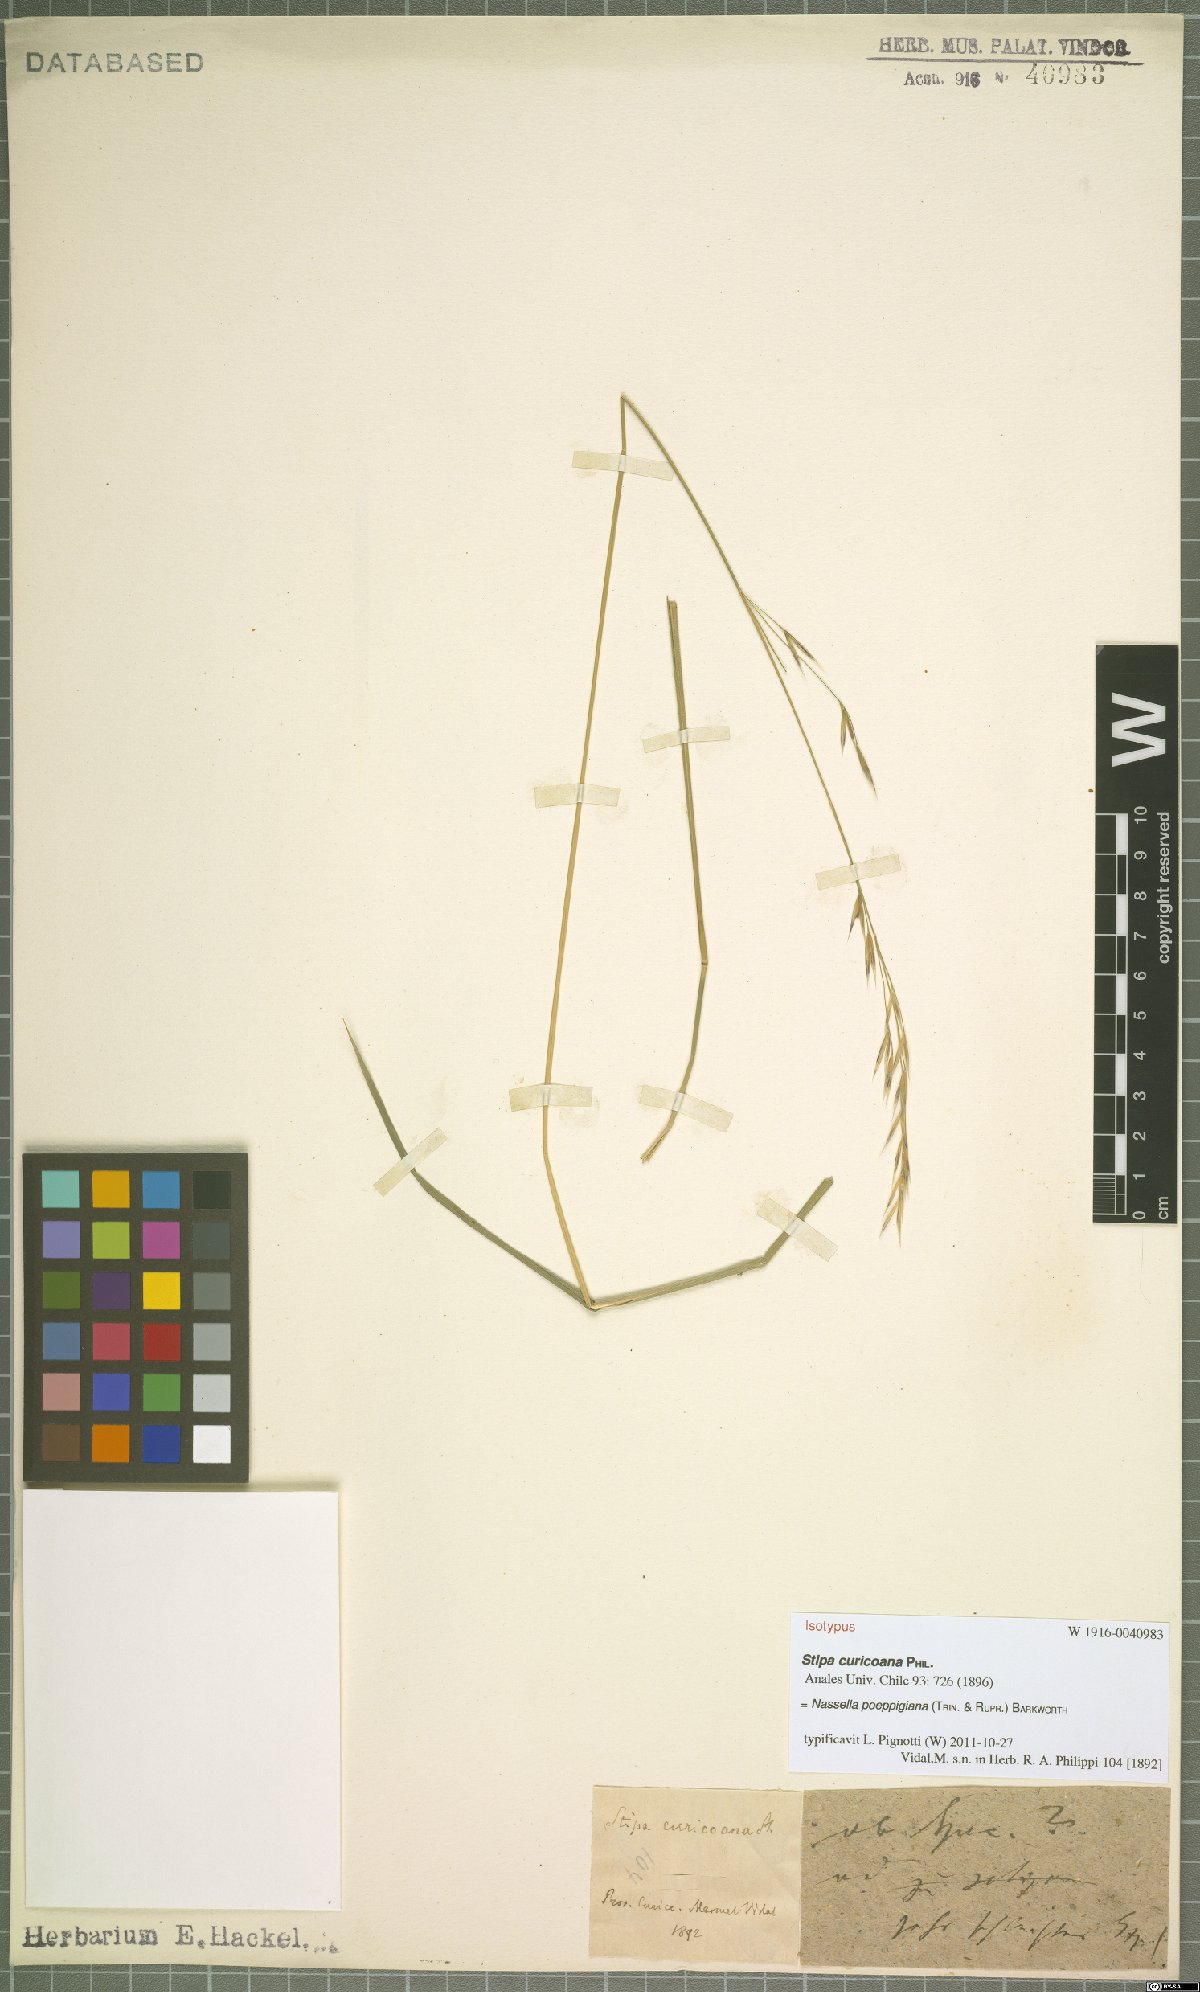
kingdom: Plantae
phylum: Tracheophyta
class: Liliopsida
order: Poales
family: Poaceae
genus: Nassella
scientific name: Nassella poeppigiana
